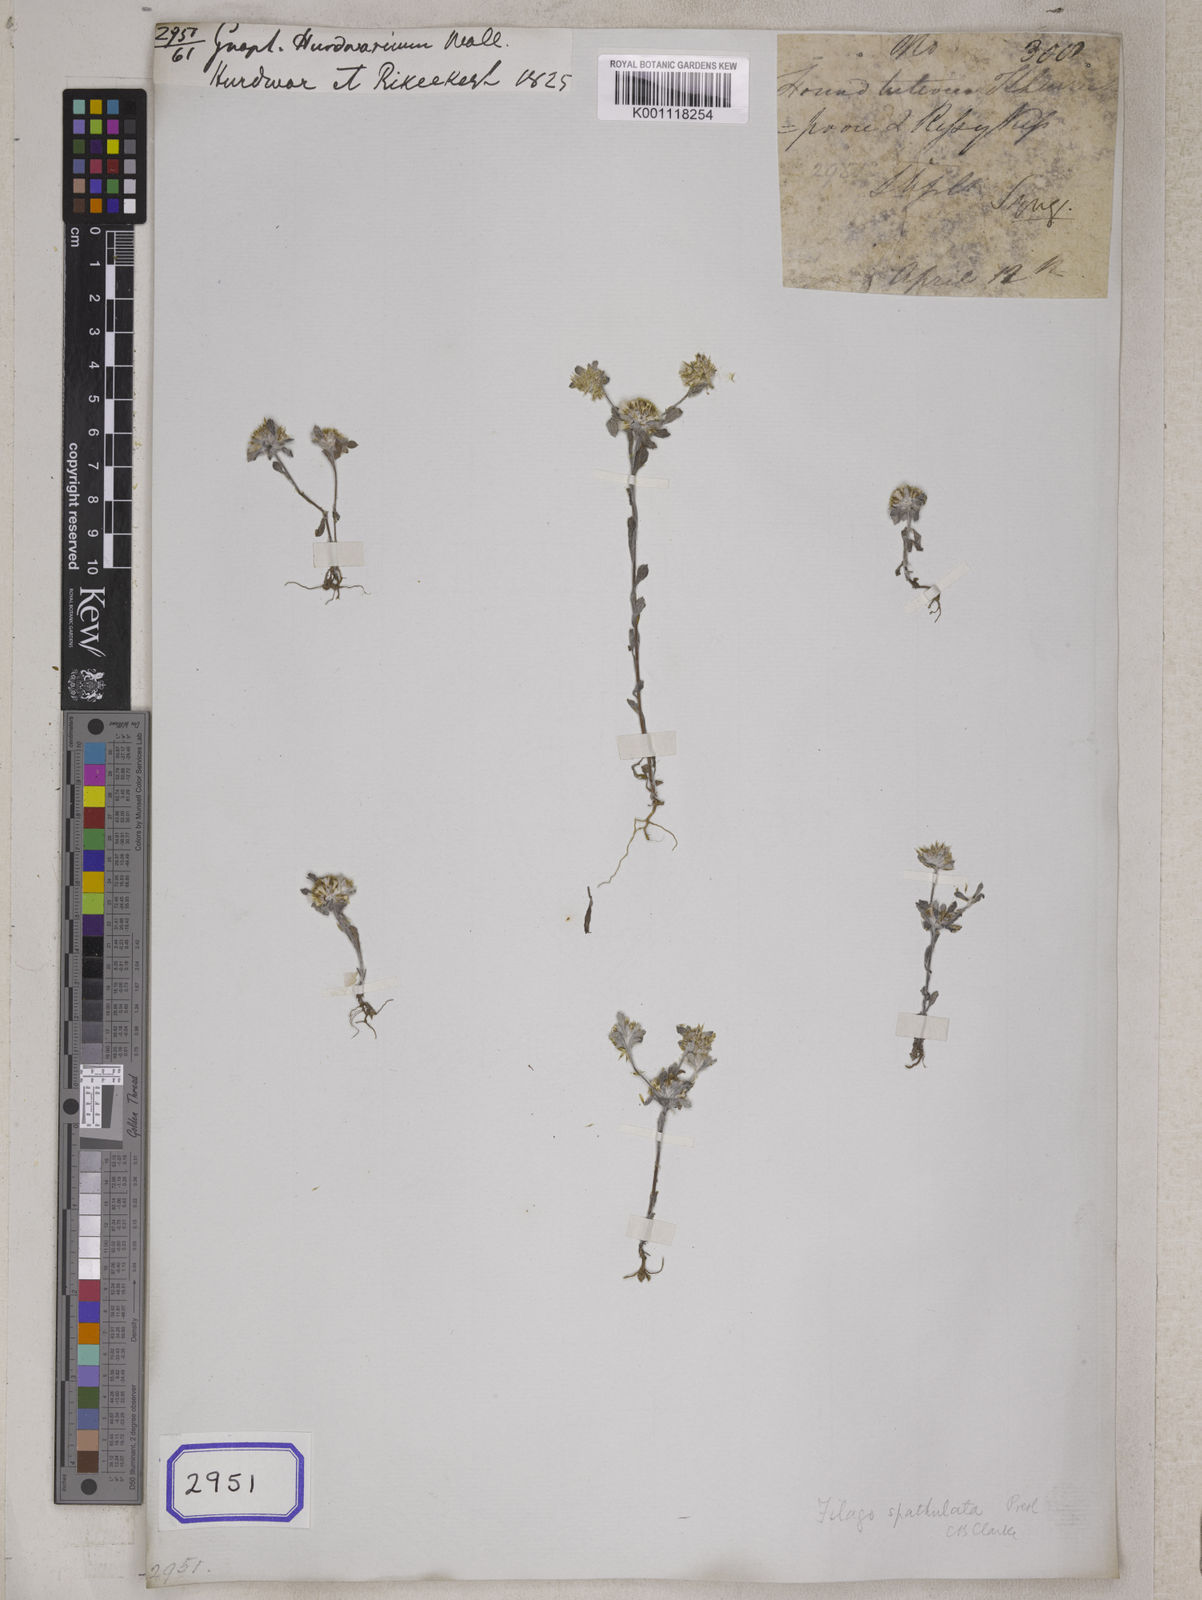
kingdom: Plantae
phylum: Tracheophyta
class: Magnoliopsida
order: Asterales
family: Asteraceae
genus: Gnaphalium
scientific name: Gnaphalium
